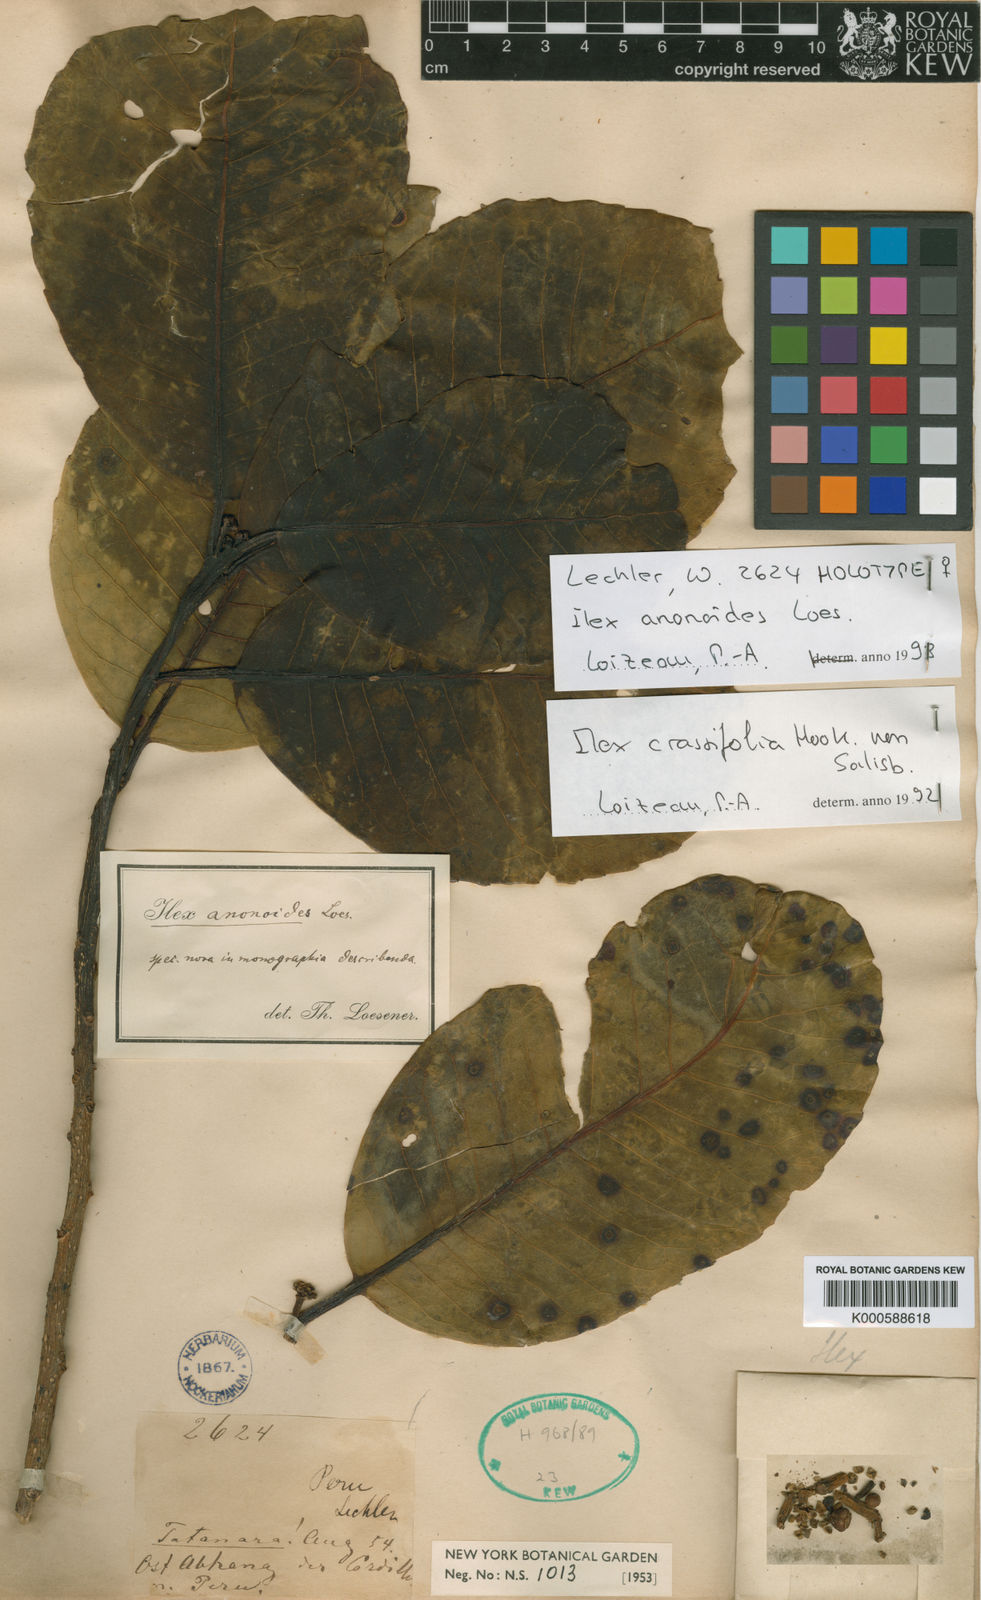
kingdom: Plantae
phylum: Tracheophyta
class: Magnoliopsida
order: Aquifoliales
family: Aquifoliaceae
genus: Ilex
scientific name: Ilex anonoides
